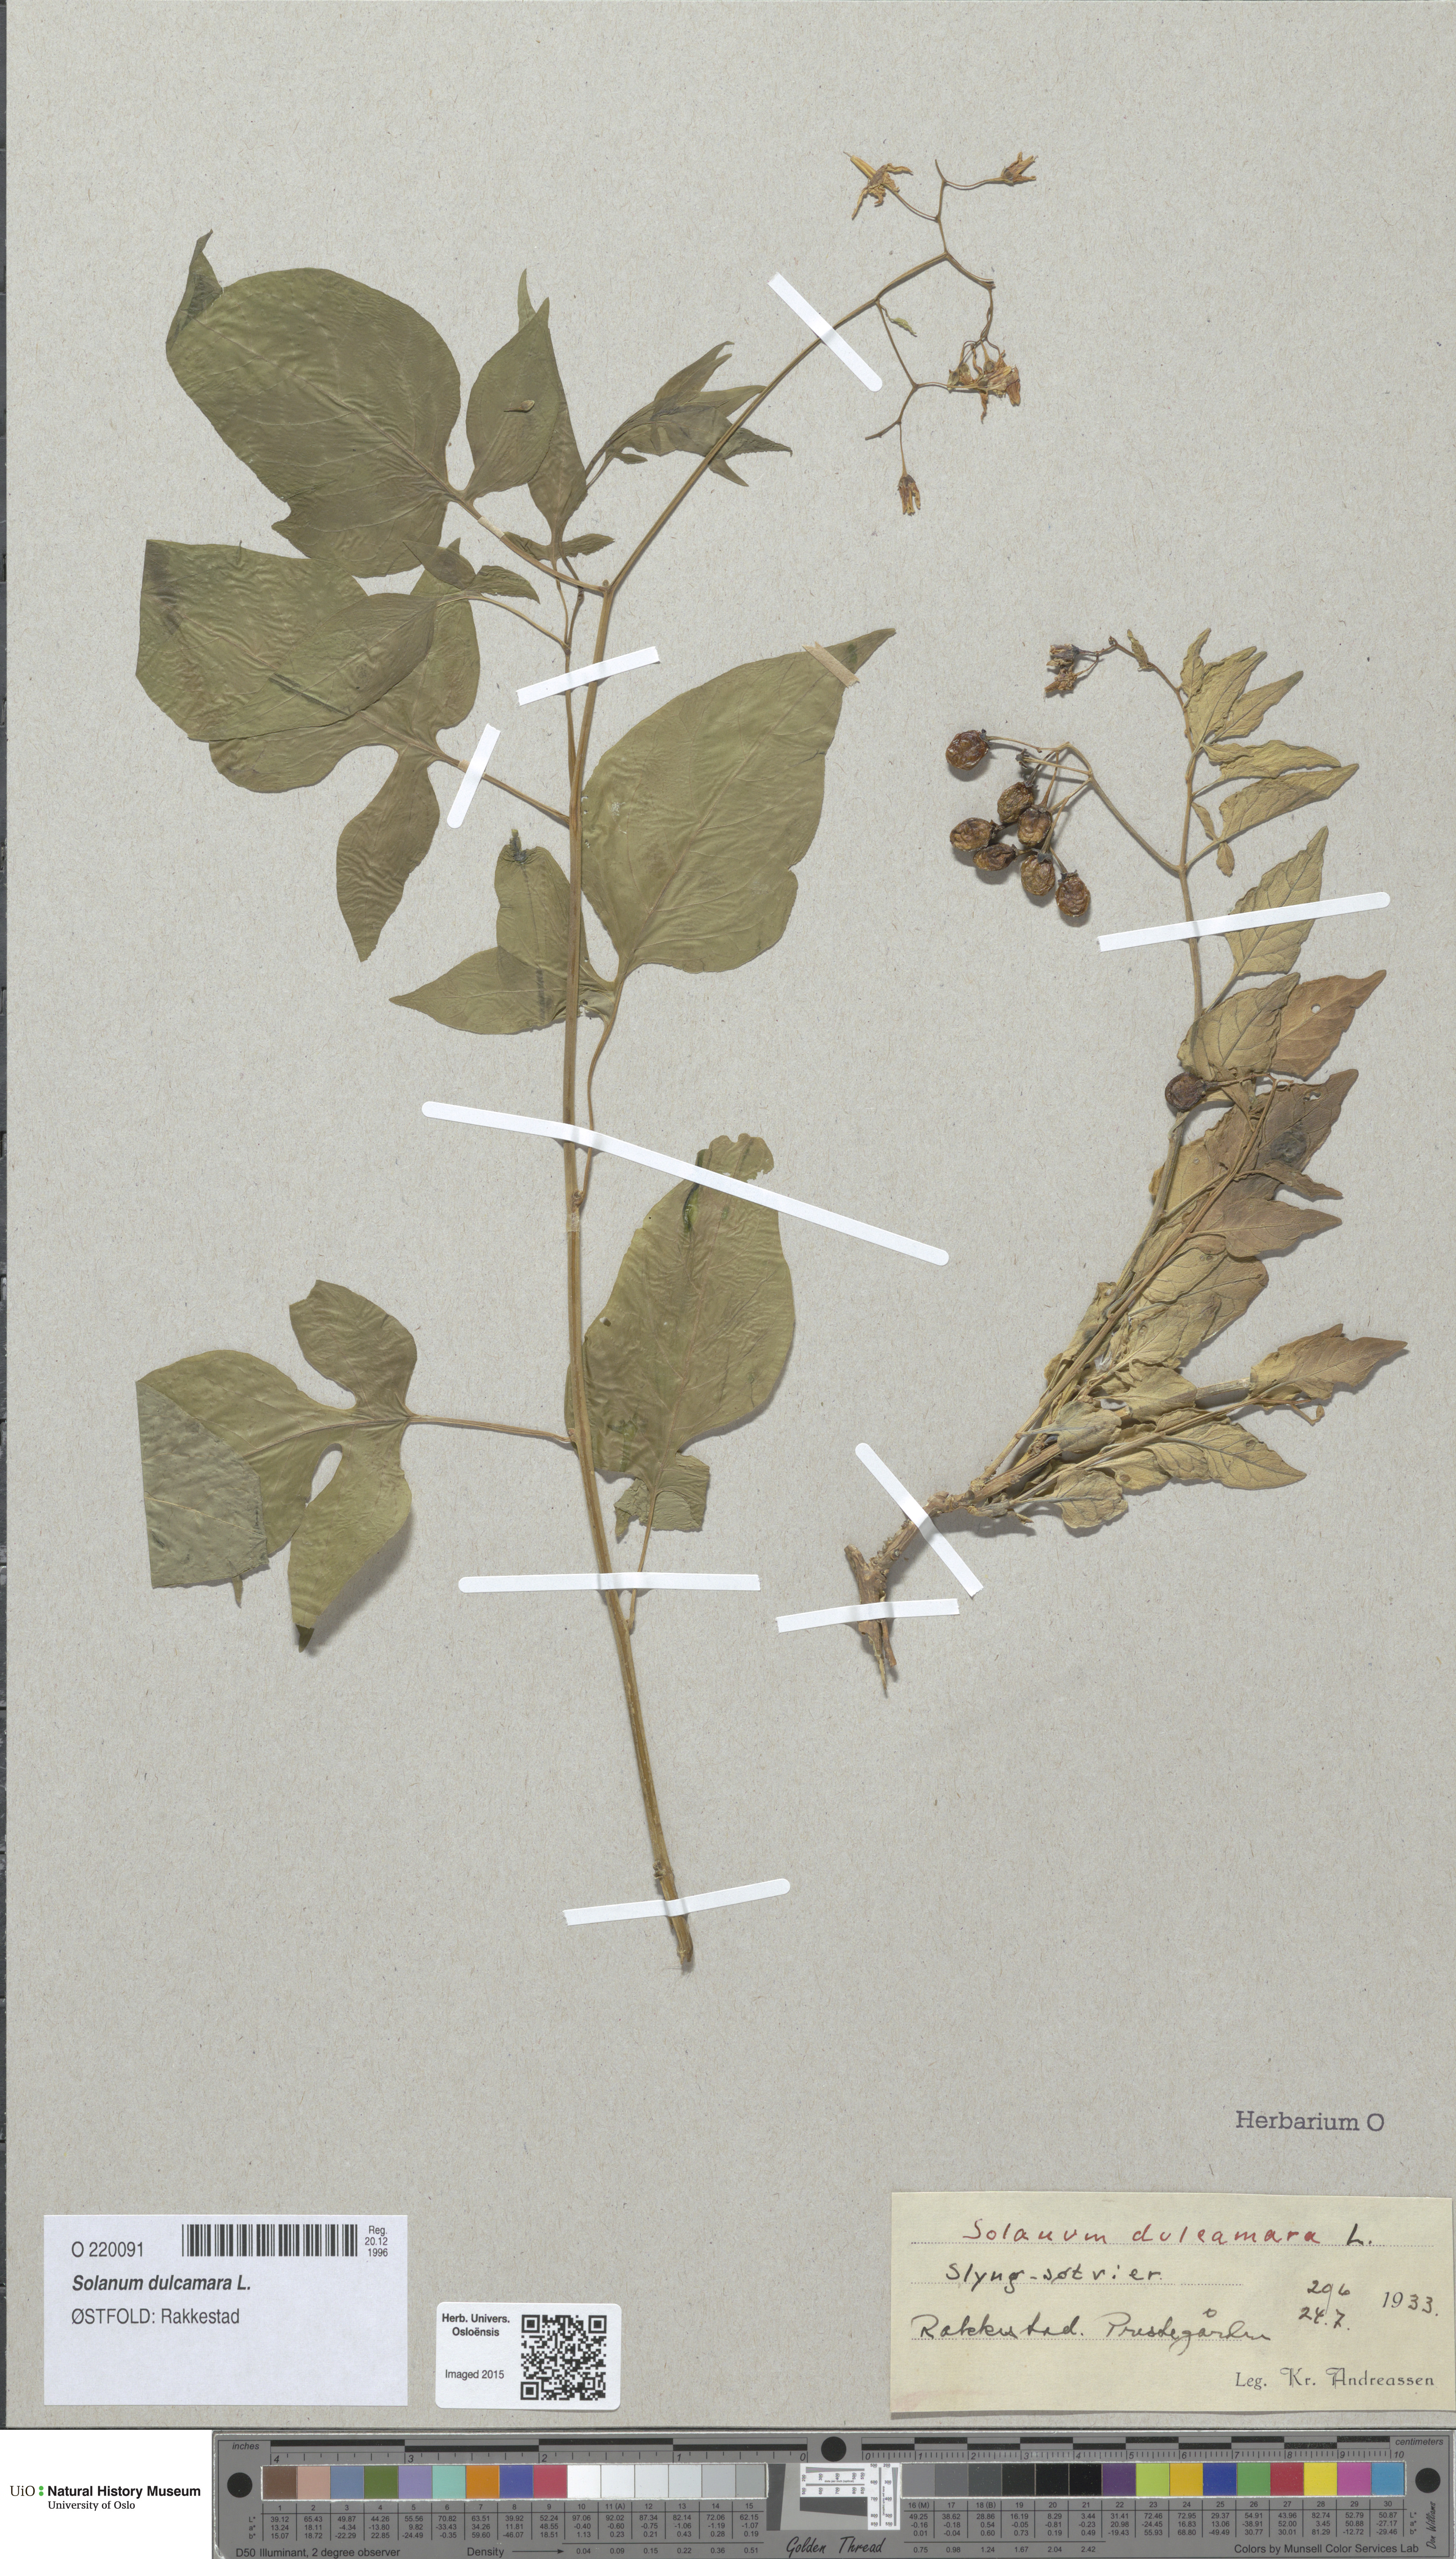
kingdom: Plantae
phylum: Tracheophyta
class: Magnoliopsida
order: Solanales
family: Solanaceae
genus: Solanum
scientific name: Solanum dulcamara
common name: Climbing nightshade
